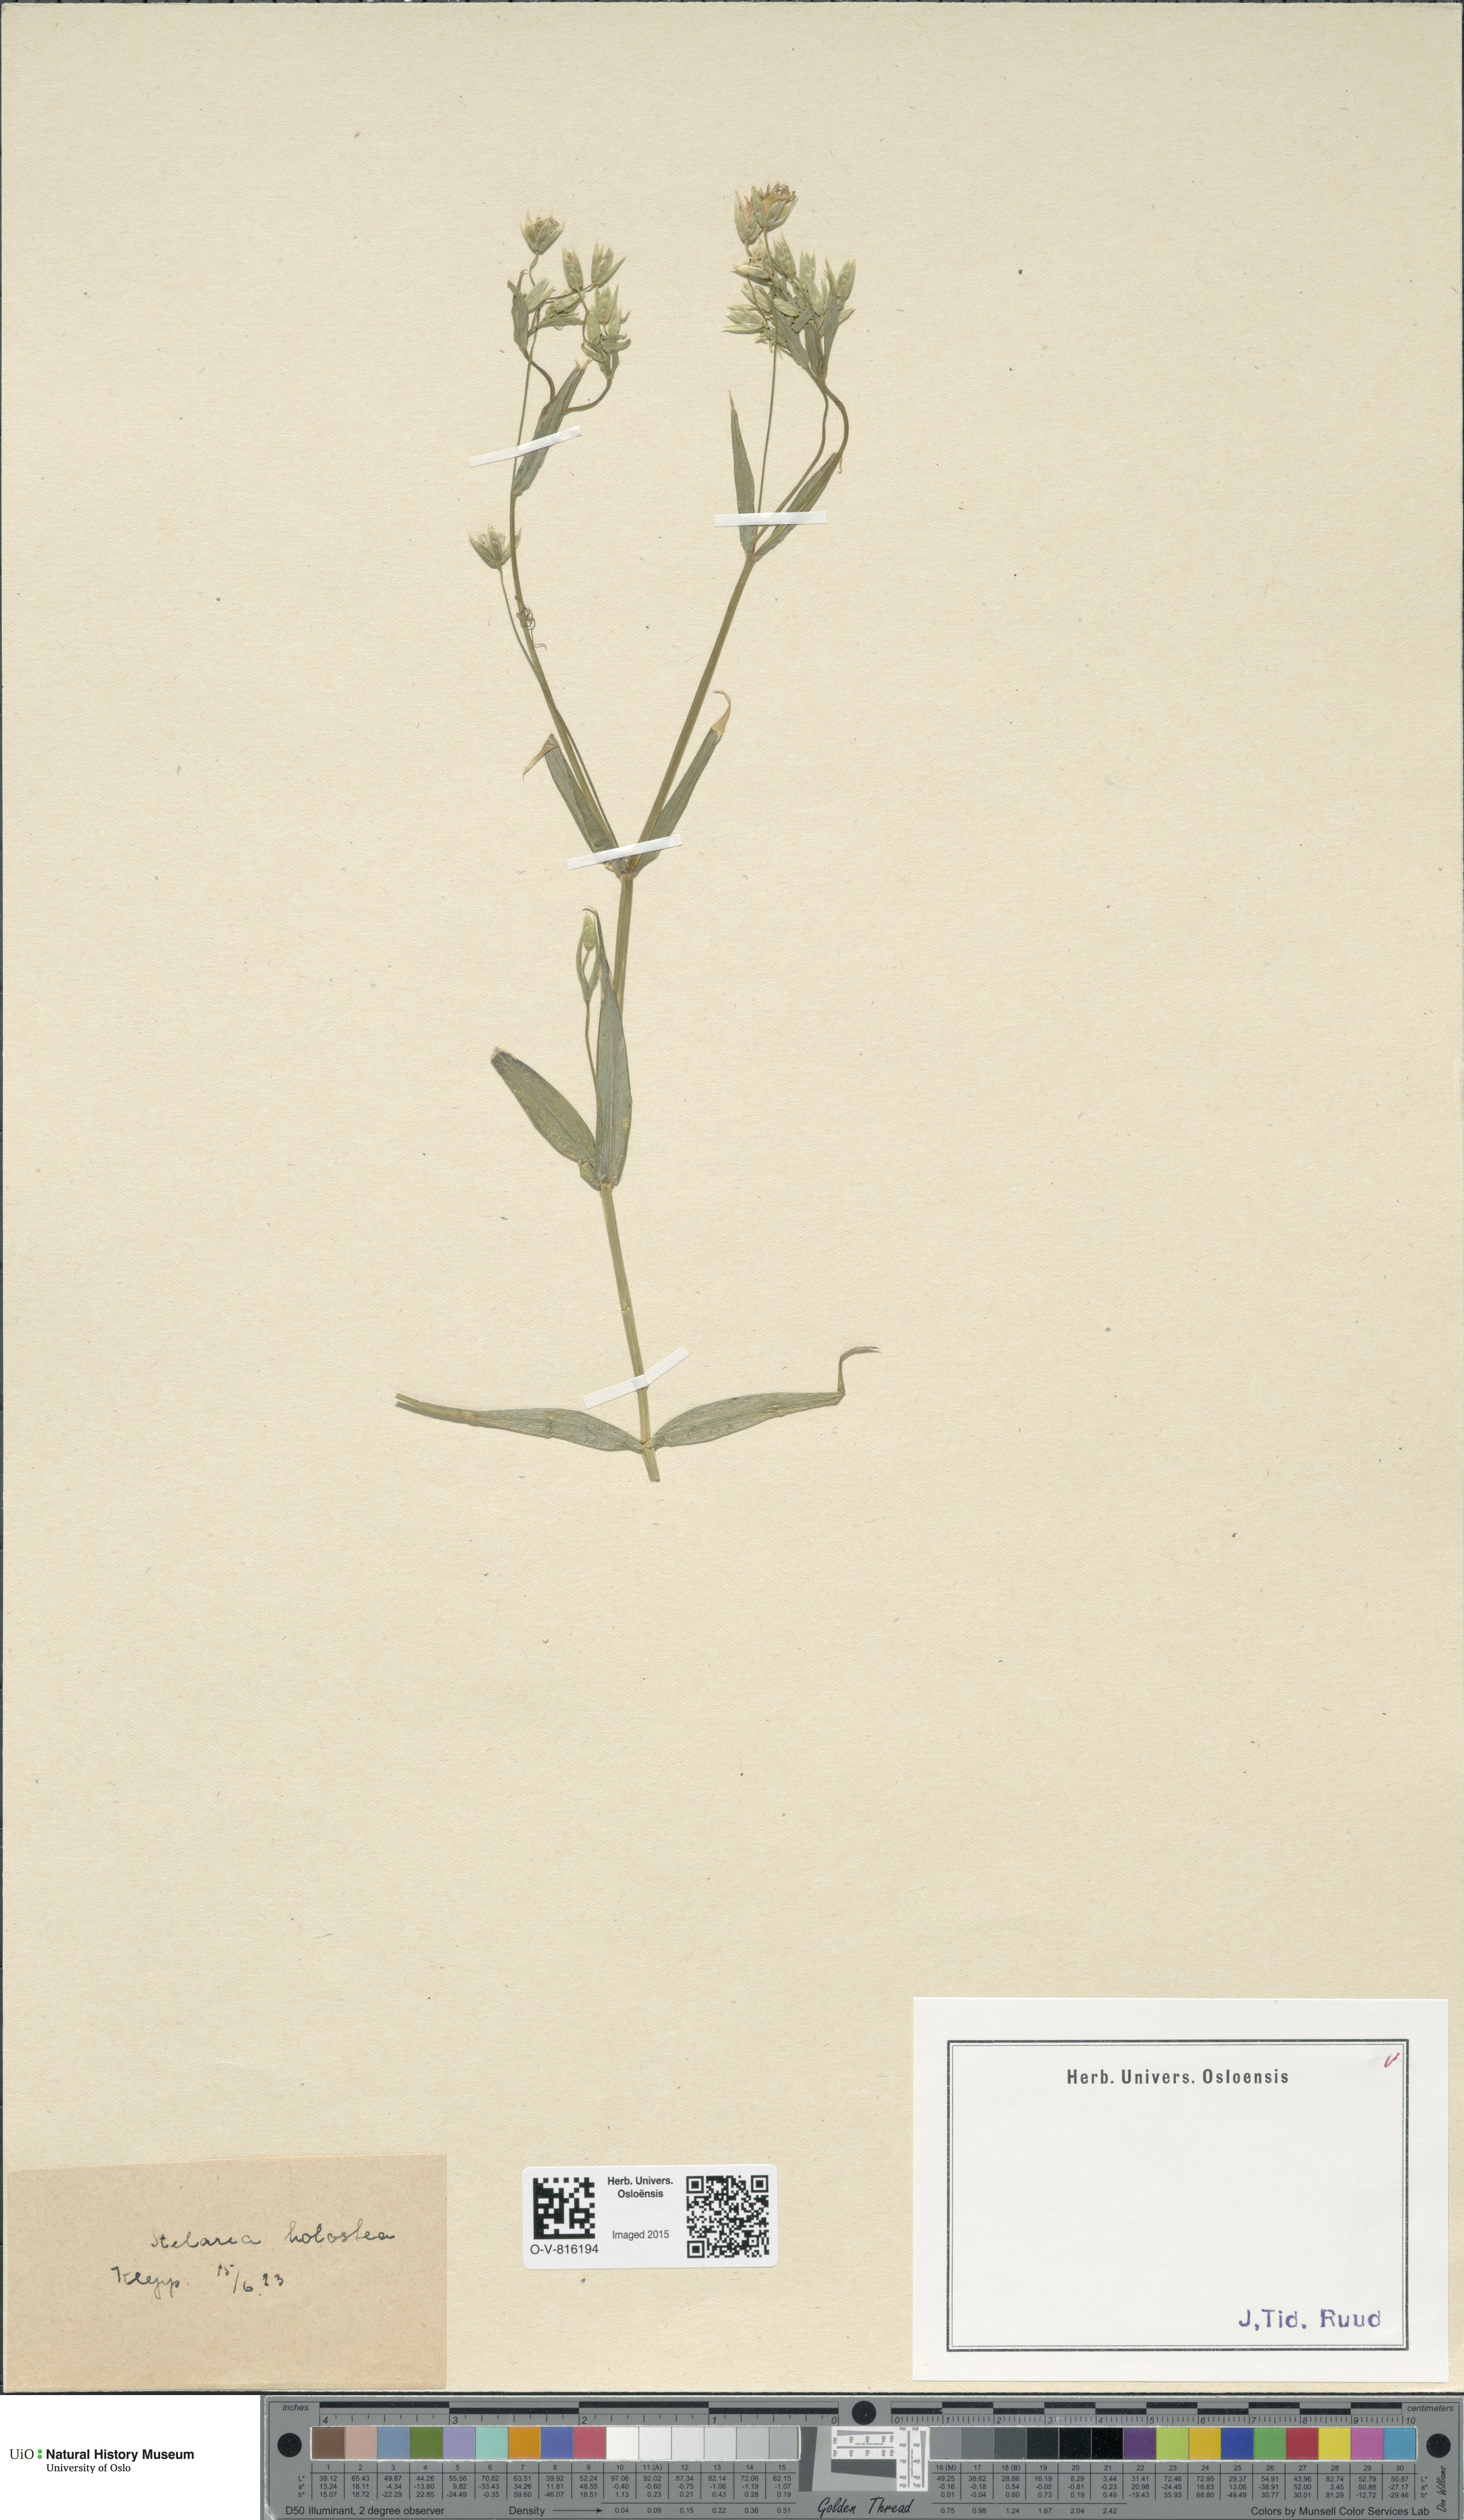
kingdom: Plantae
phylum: Tracheophyta
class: Magnoliopsida
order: Caryophyllales
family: Caryophyllaceae
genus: Rabelera
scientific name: Rabelera holostea
